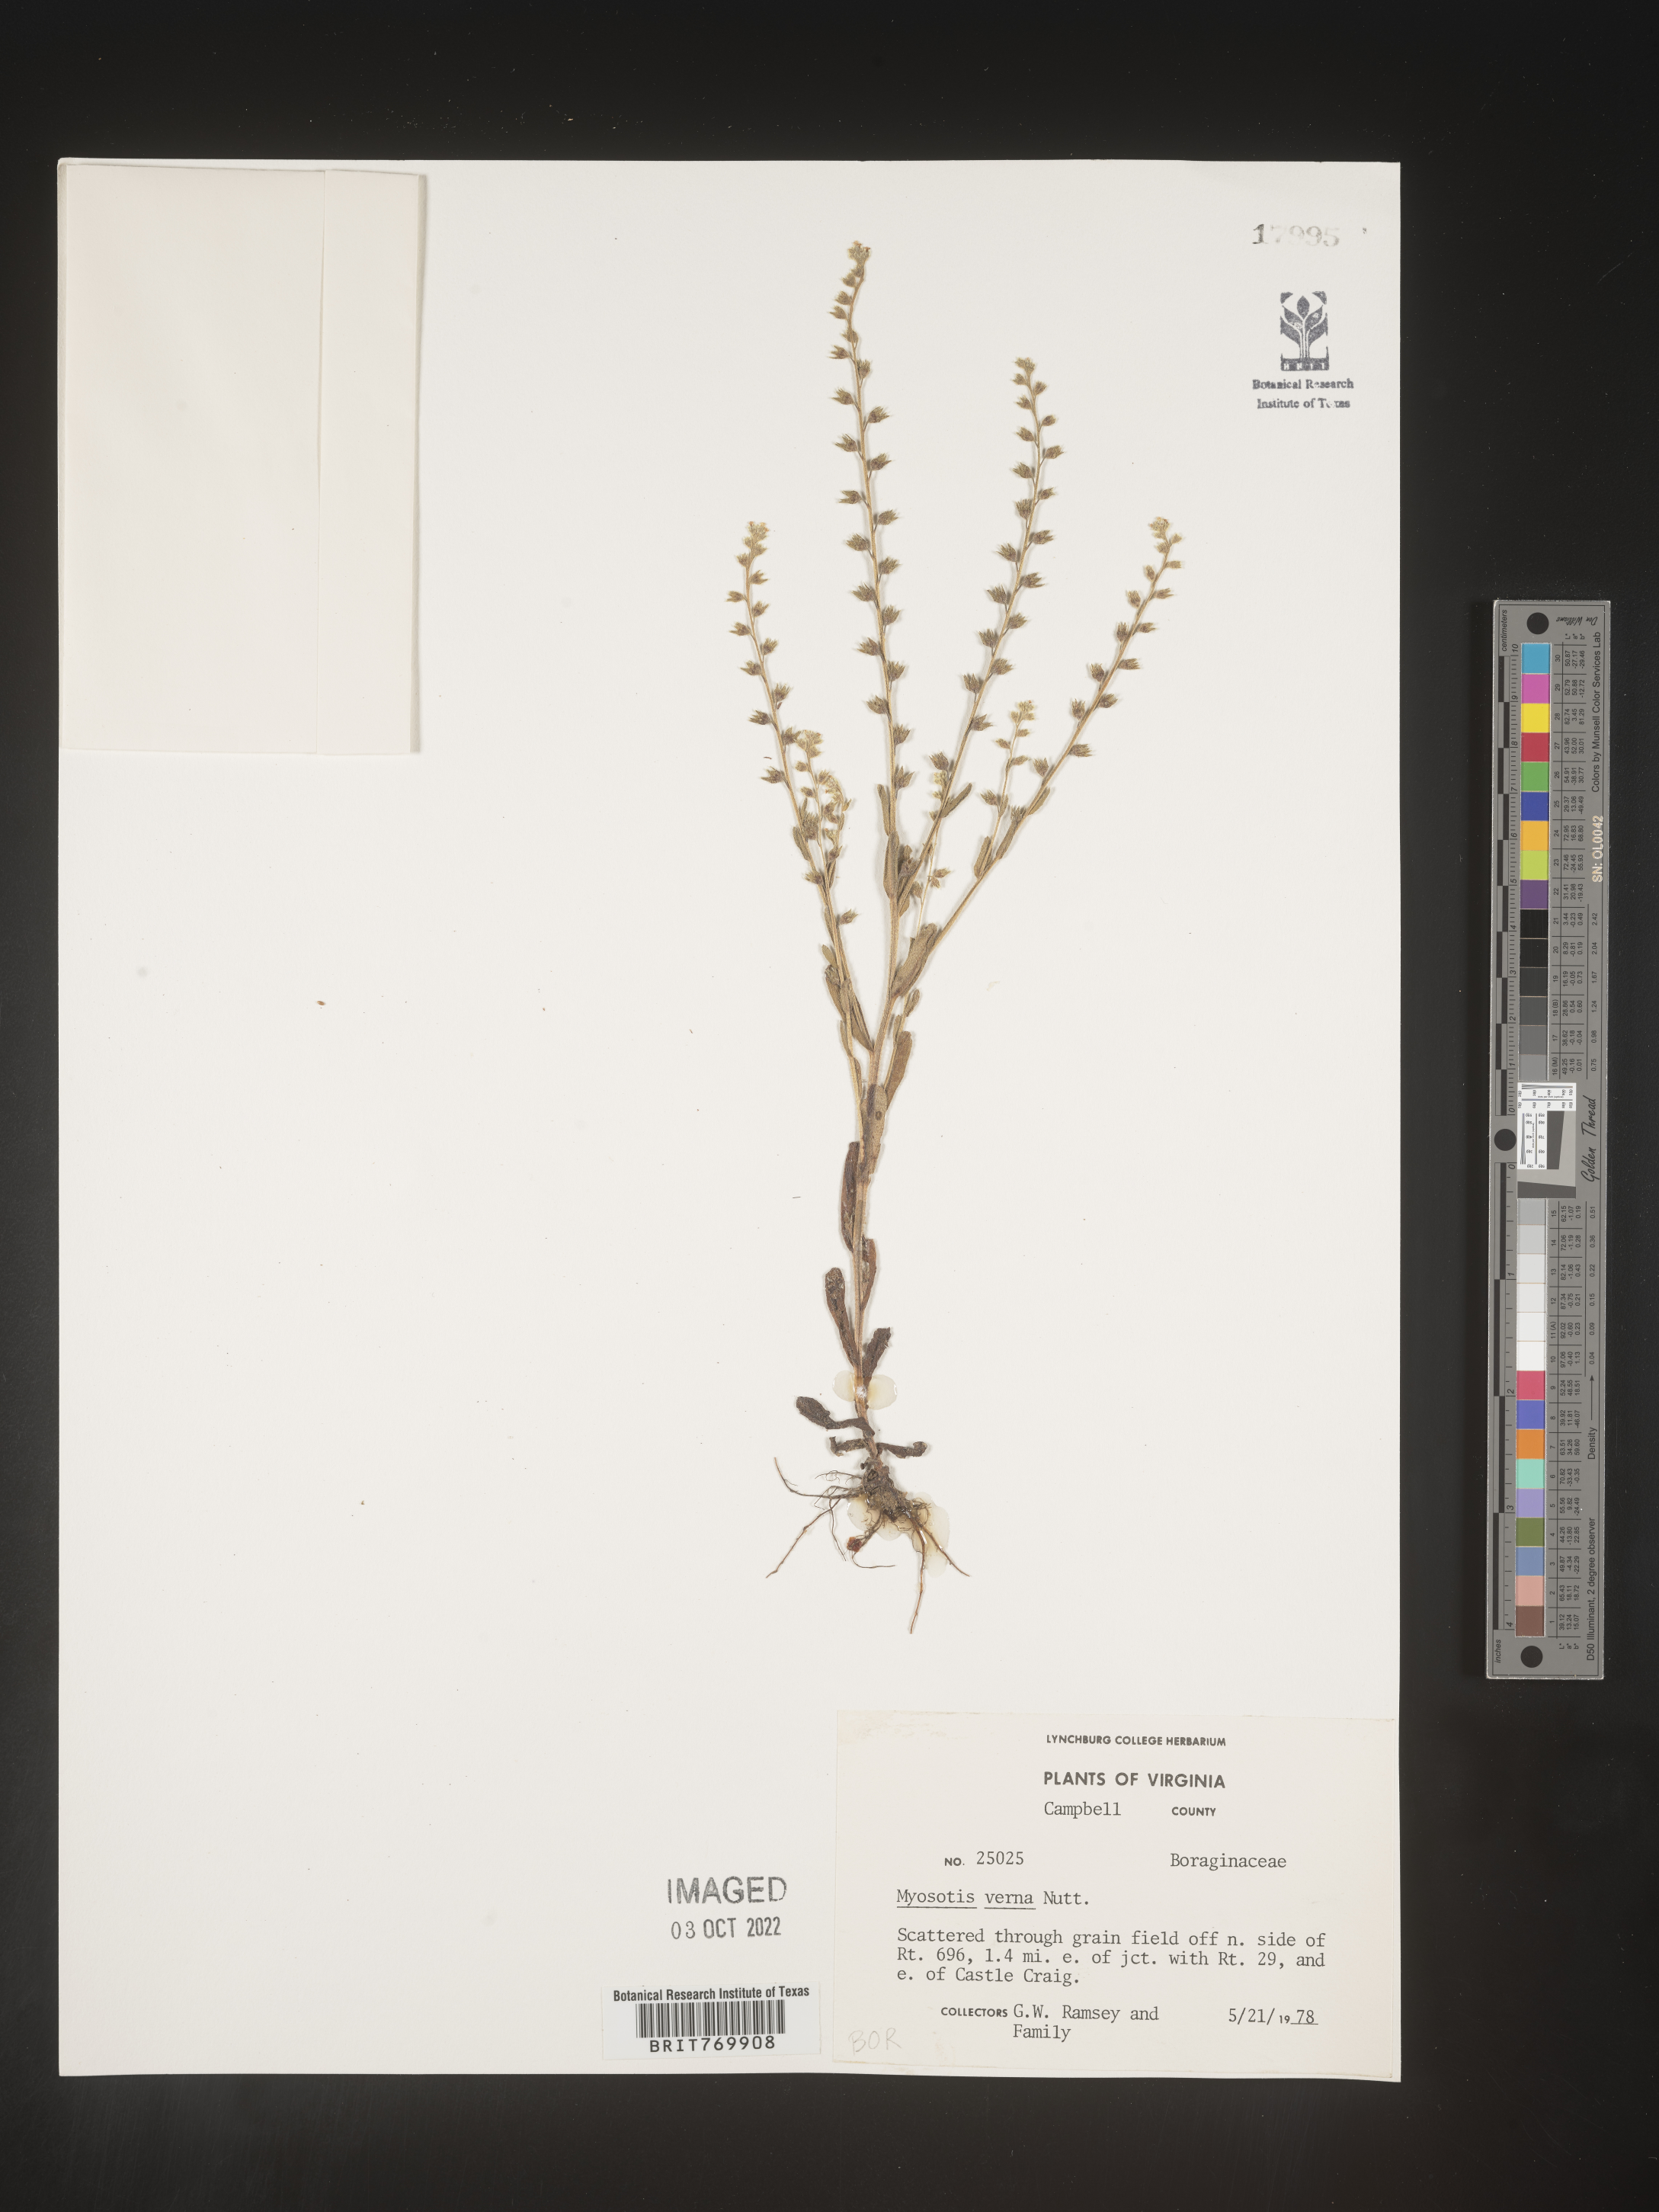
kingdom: Plantae
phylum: Tracheophyta
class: Magnoliopsida
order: Boraginales
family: Boraginaceae
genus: Myosotis
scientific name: Myosotis verna
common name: Early forget-me-not
